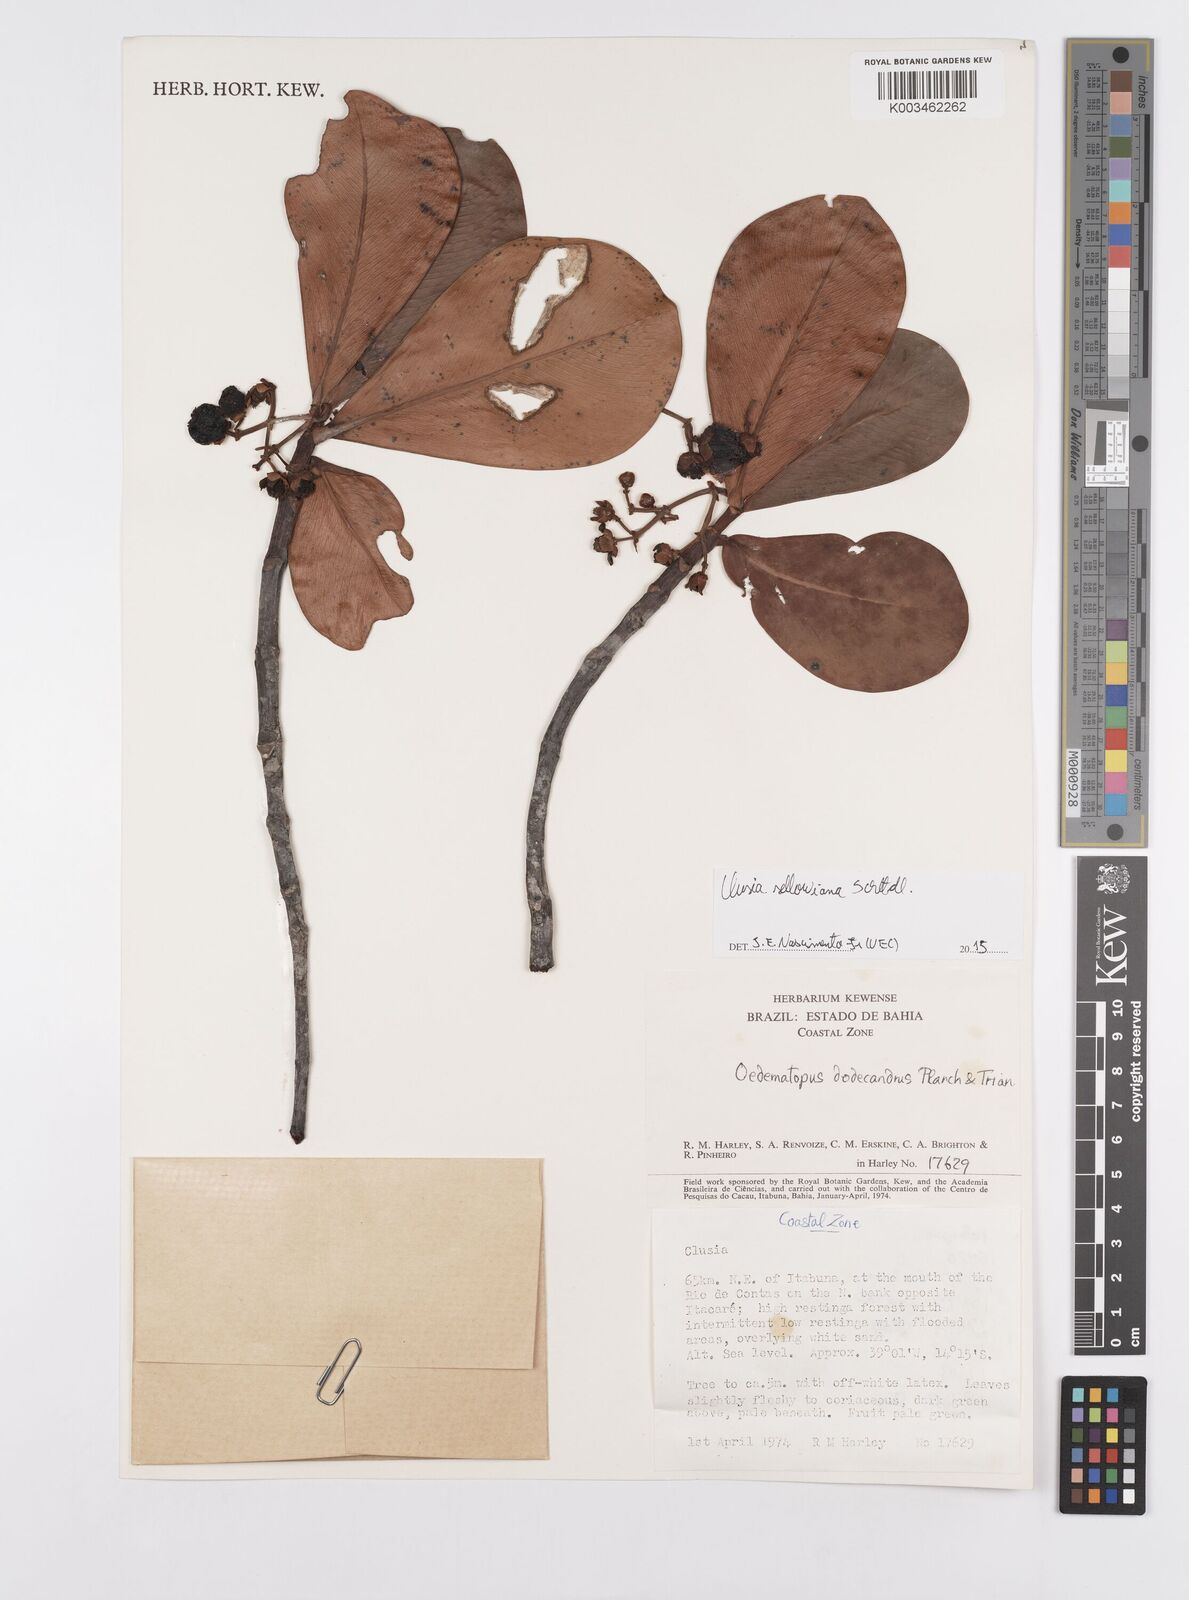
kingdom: Plantae
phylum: Tracheophyta
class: Magnoliopsida
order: Malpighiales
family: Clusiaceae
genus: Clusia
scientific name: Clusia sellowiana
